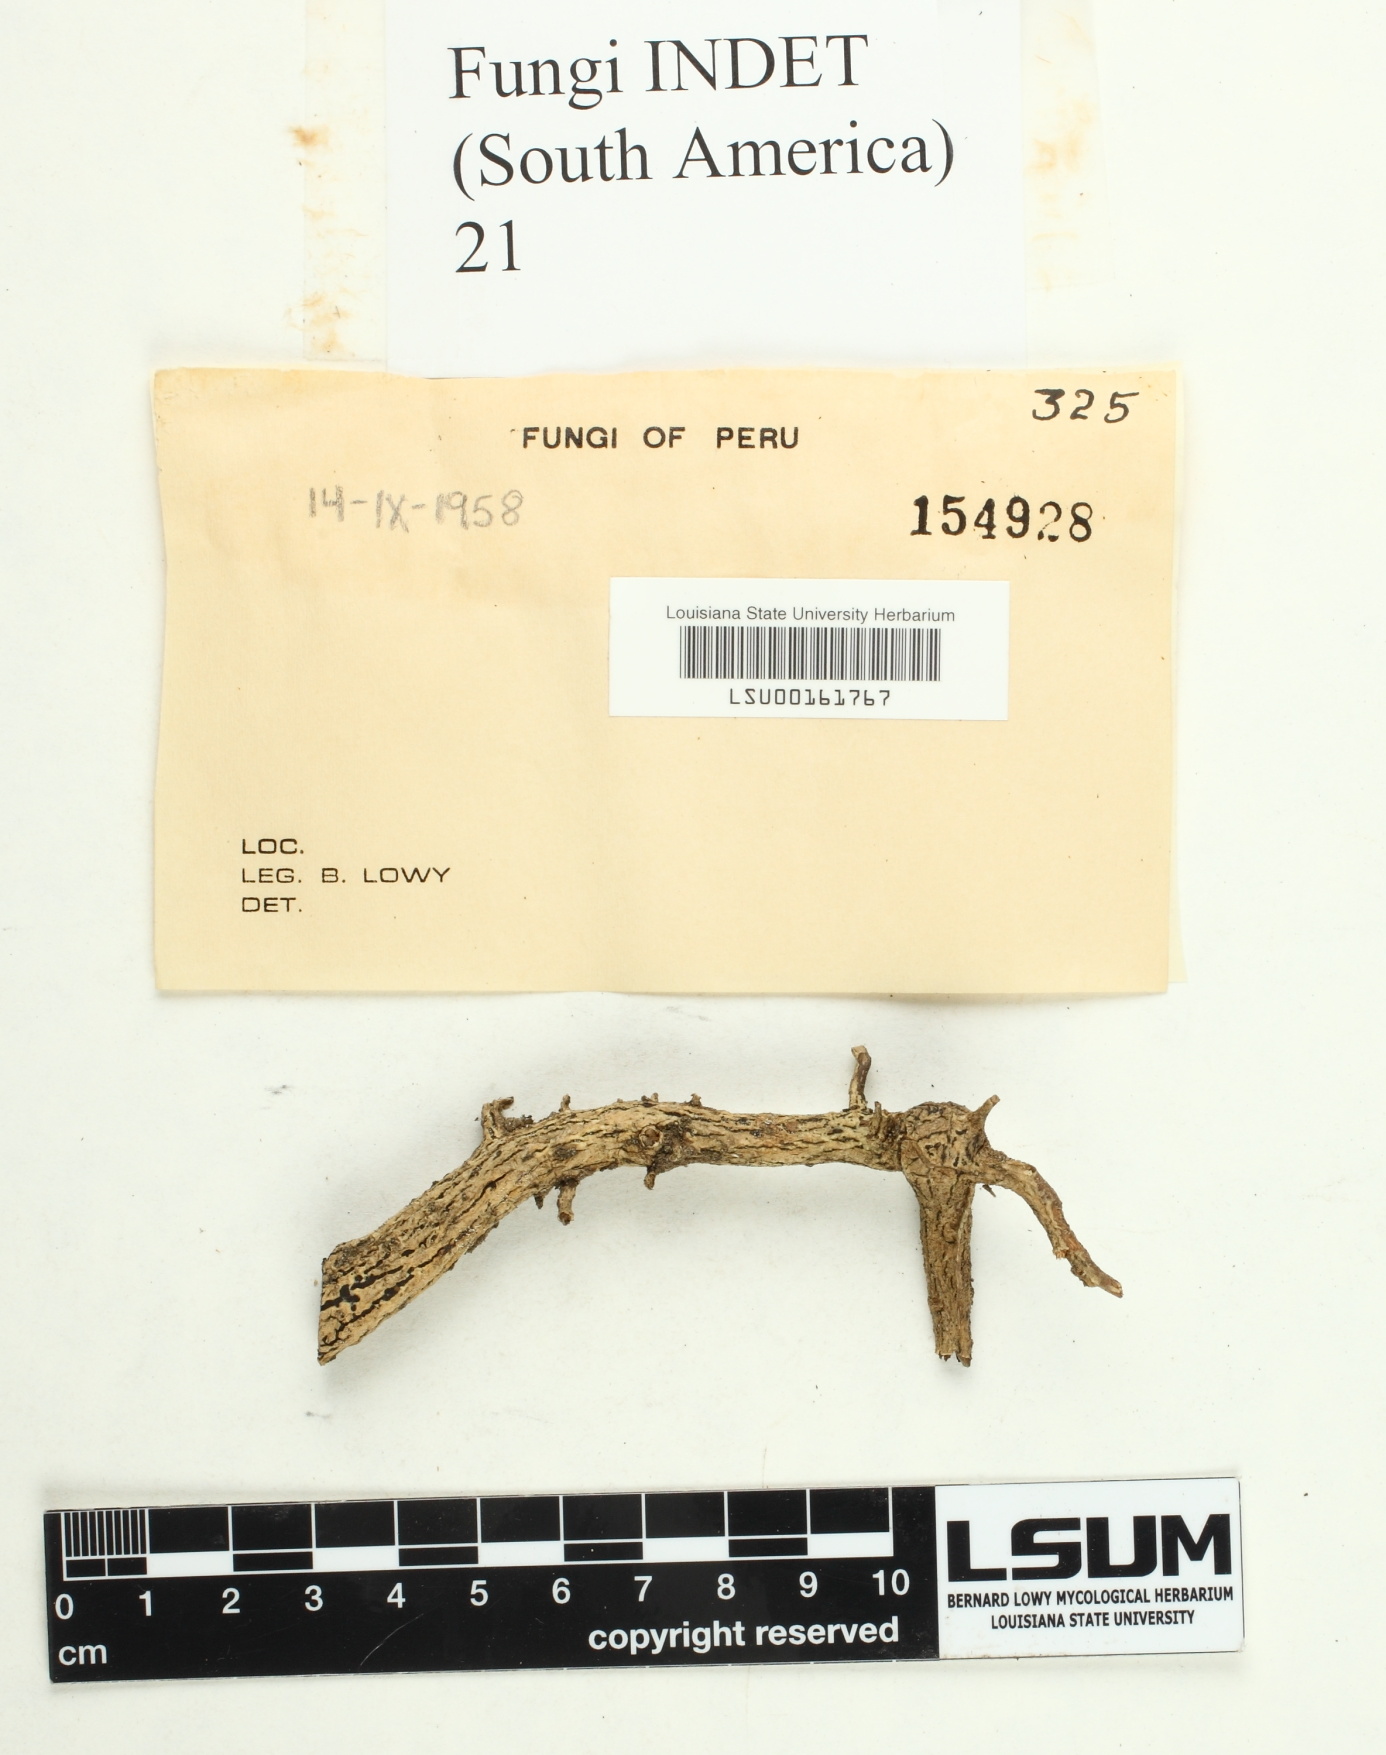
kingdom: Fungi
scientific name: Fungi
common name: Fungi
